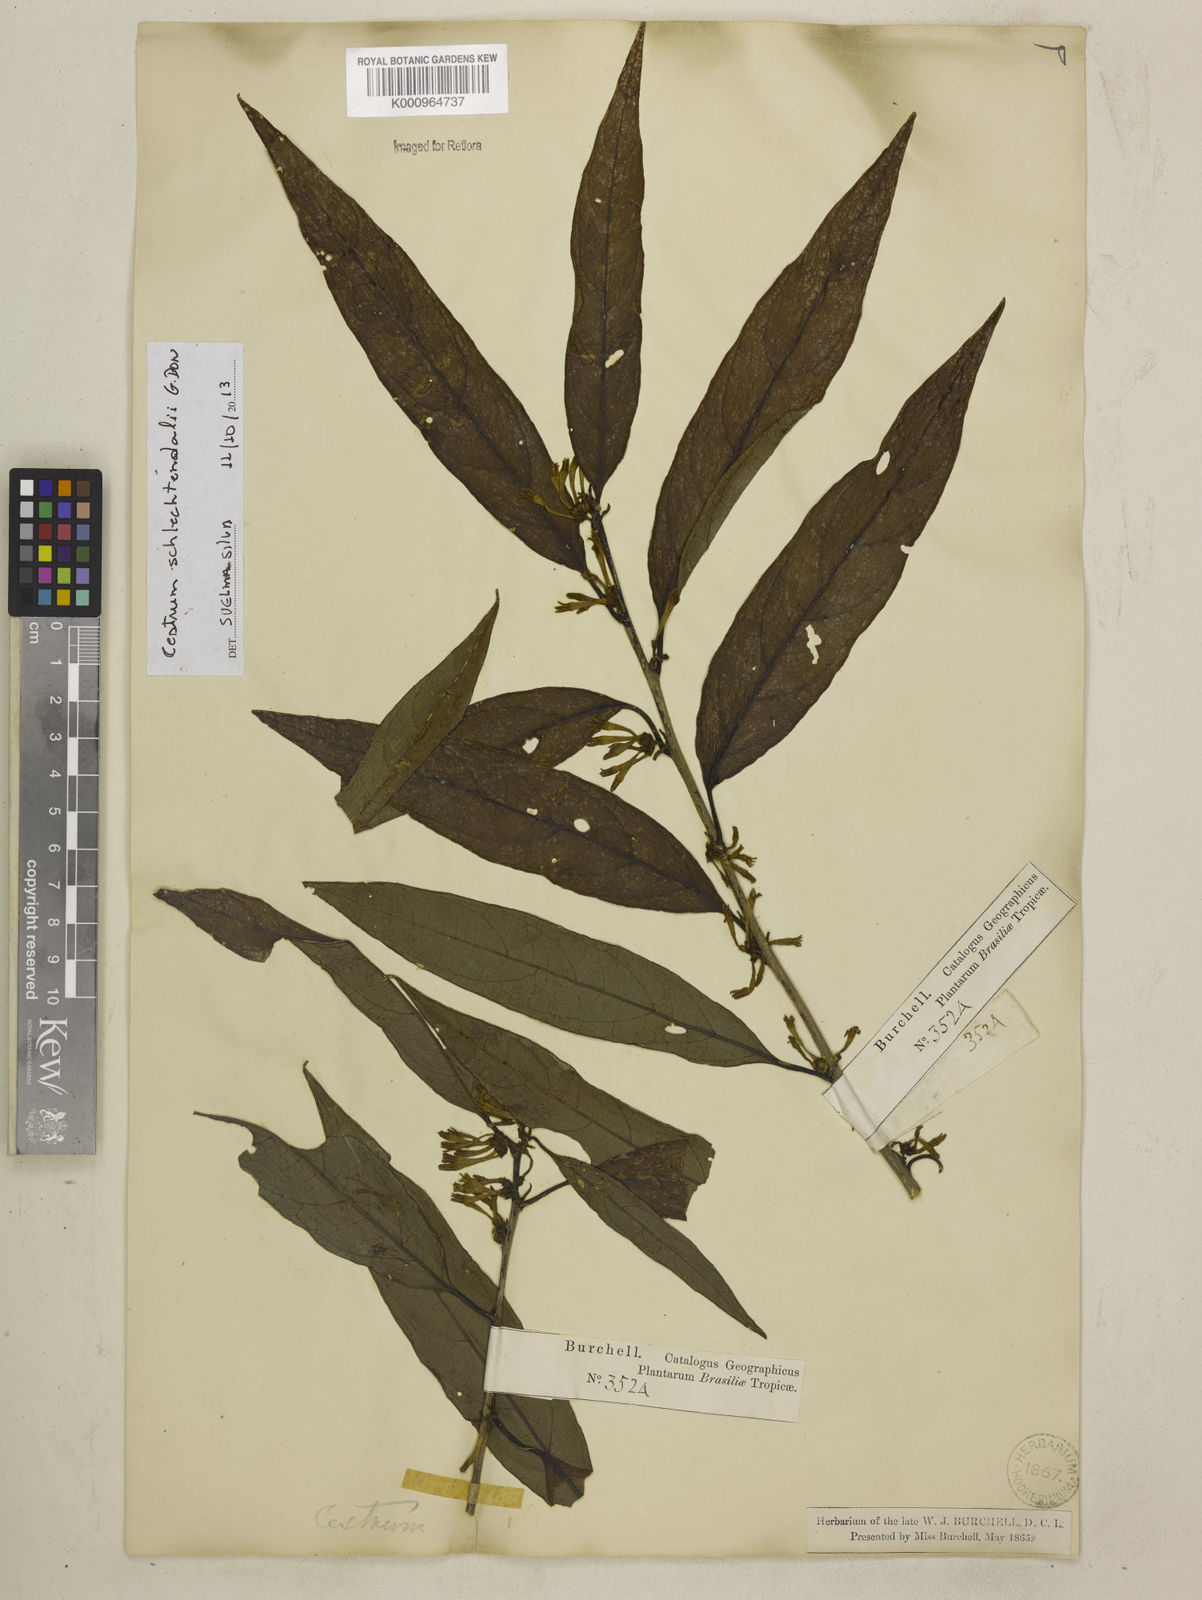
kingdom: Plantae
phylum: Tracheophyta
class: Magnoliopsida
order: Solanales
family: Solanaceae
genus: Cestrum
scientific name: Cestrum schlechtendalii
